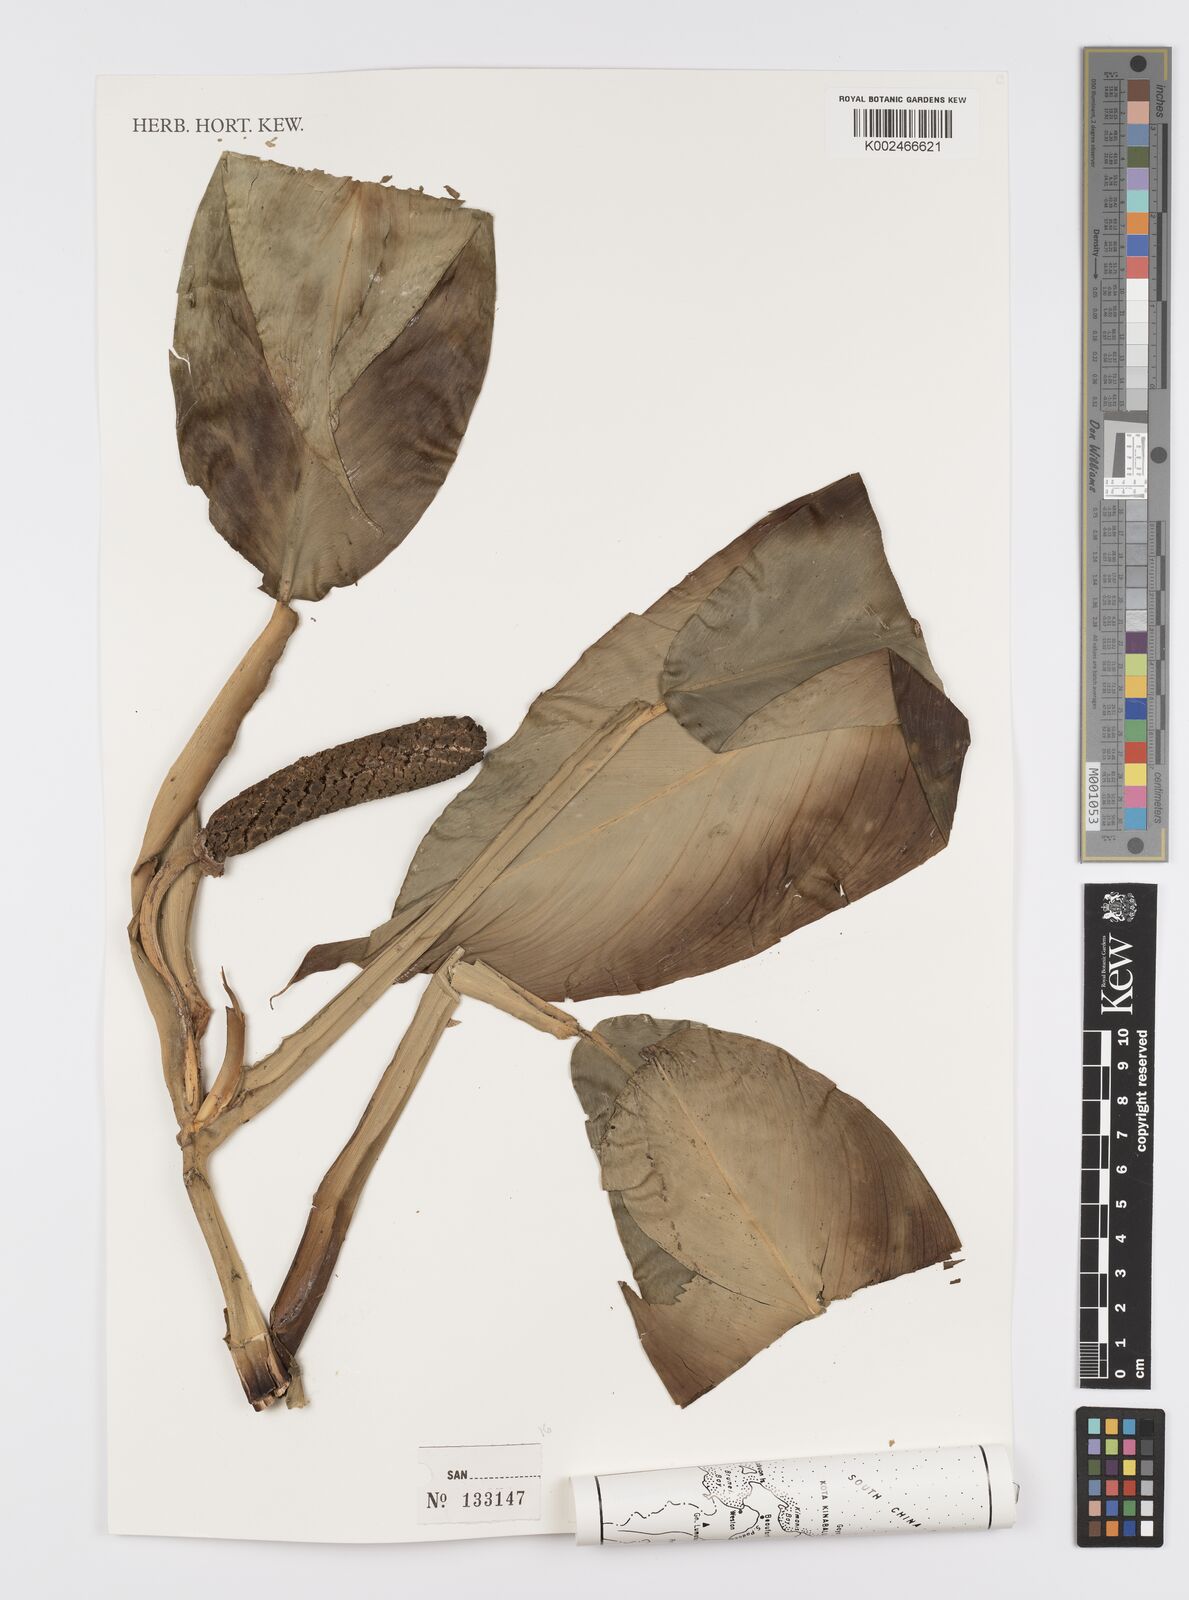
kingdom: Plantae
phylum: Tracheophyta
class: Liliopsida
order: Alismatales
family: Araceae
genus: Scindapsus
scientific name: Scindapsus
